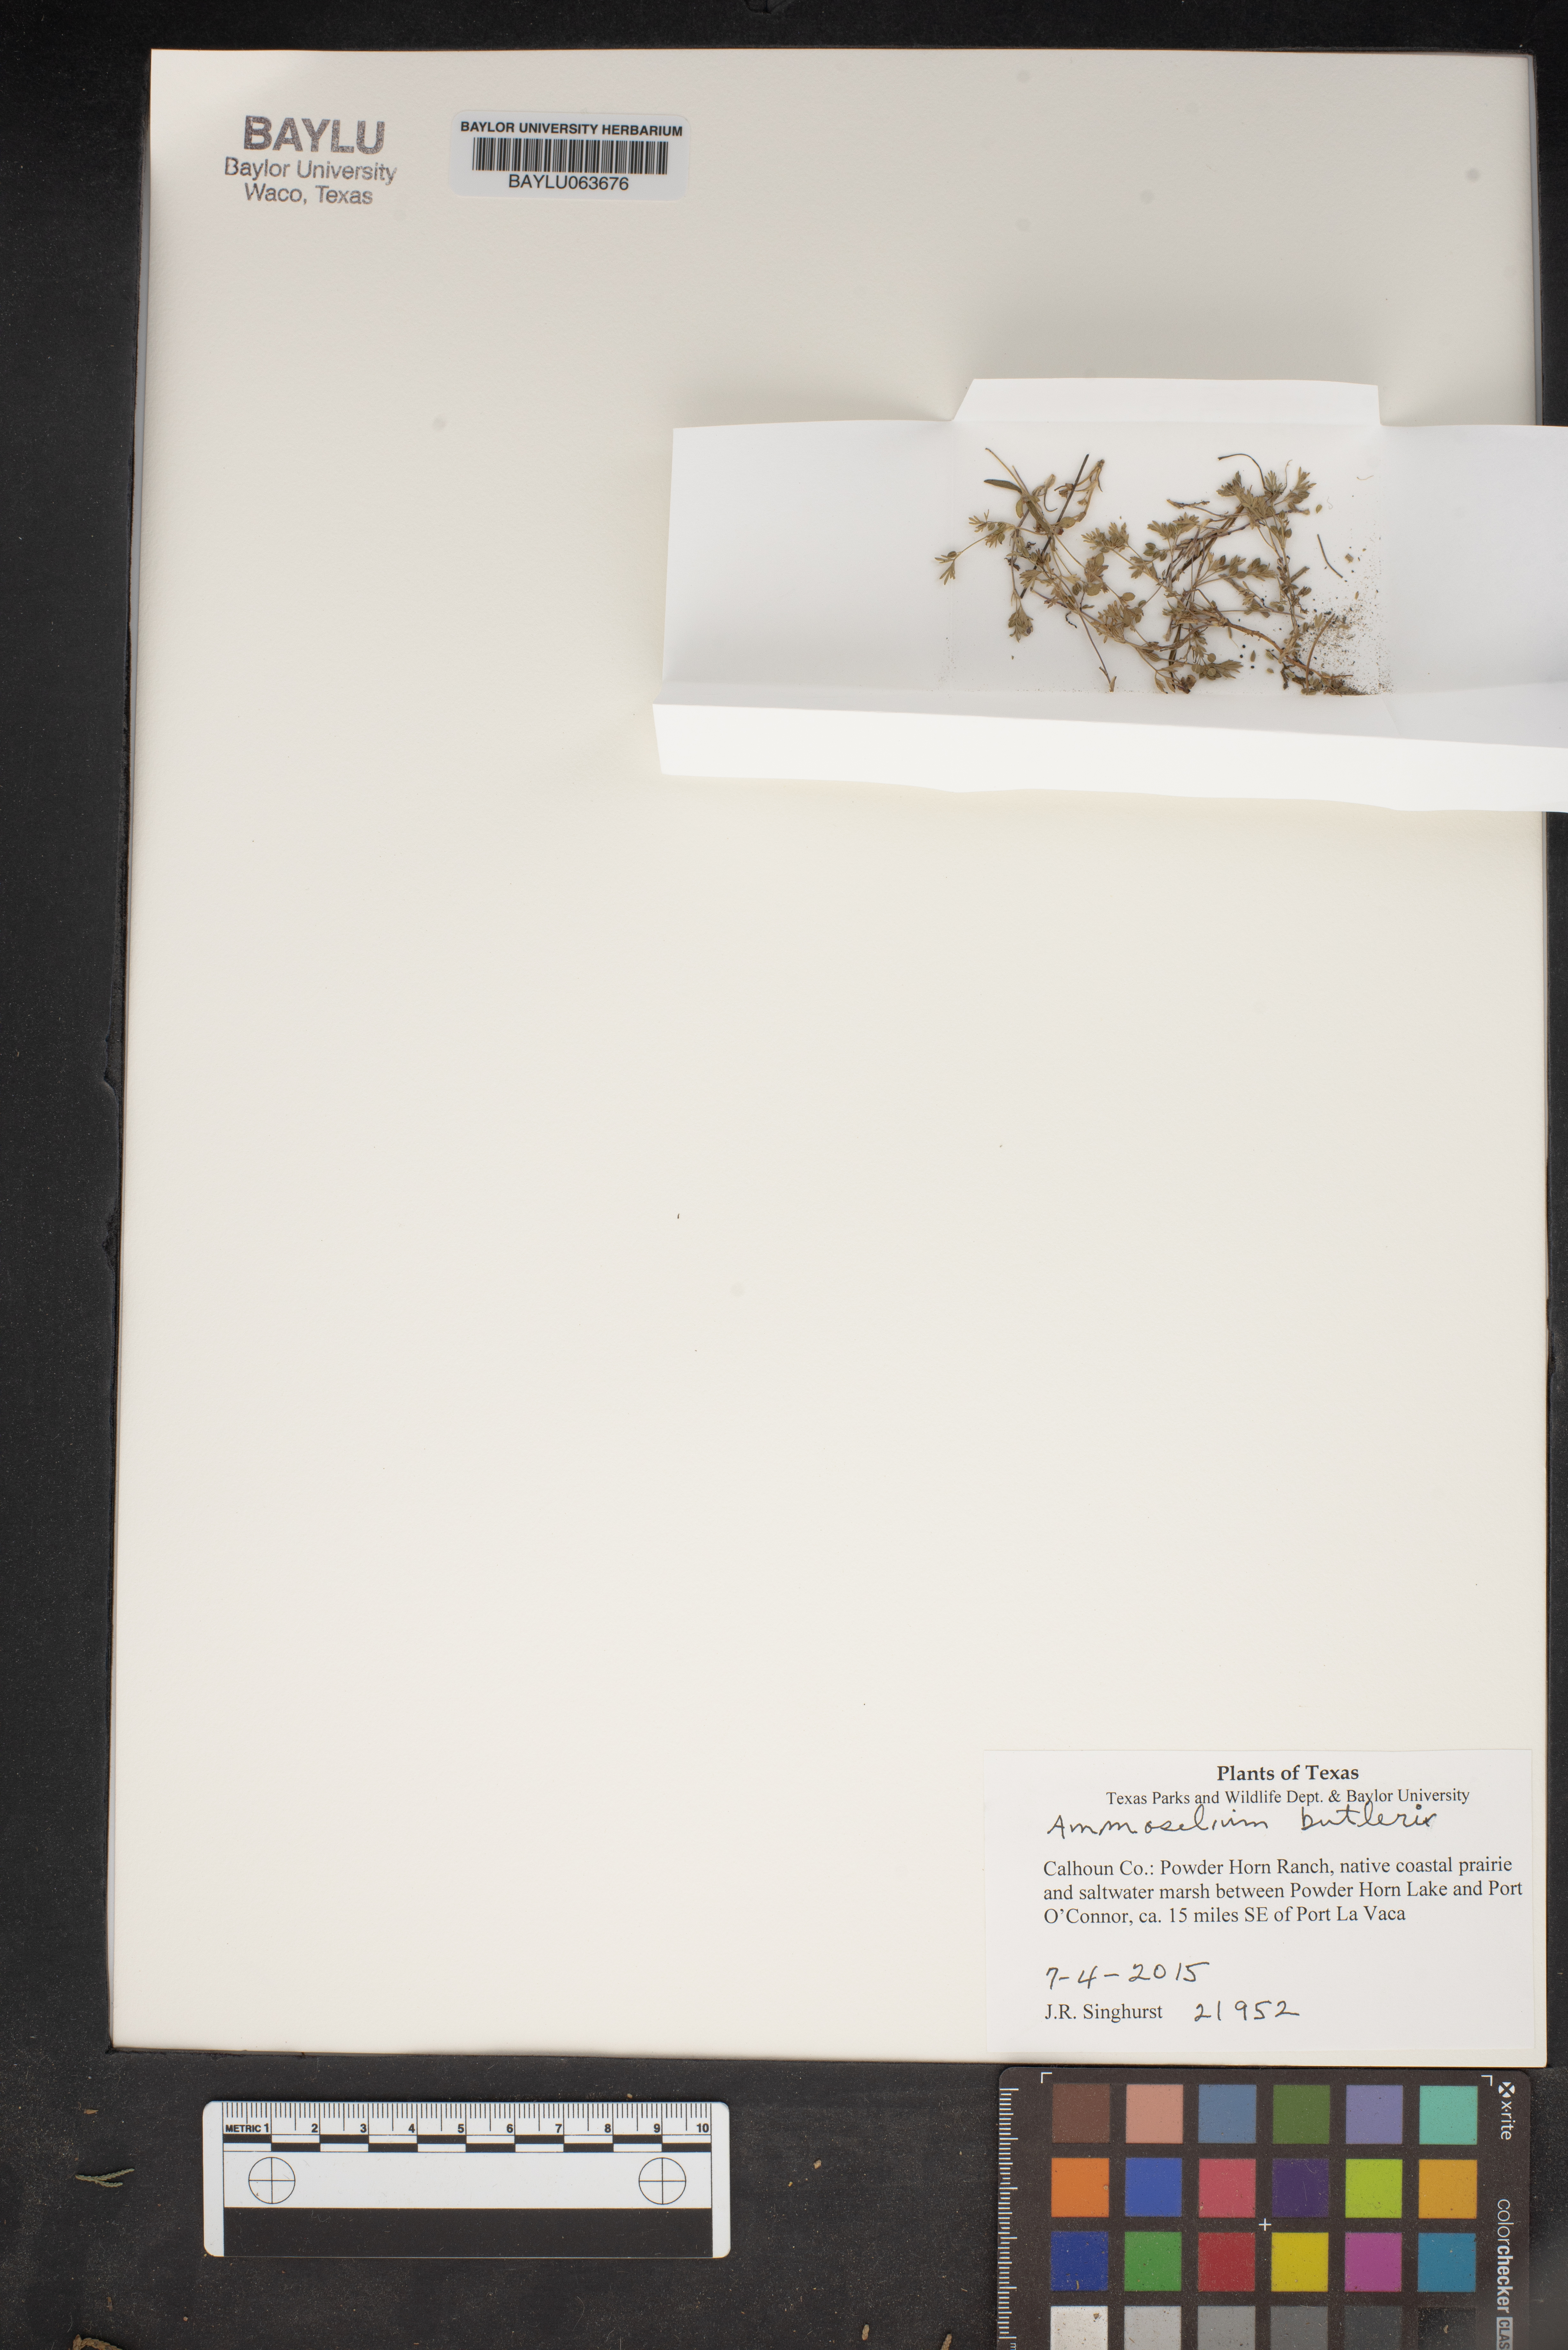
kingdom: Plantae
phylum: Tracheophyta
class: Magnoliopsida
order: Apiales
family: Apiaceae
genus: Ammoselinum
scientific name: Ammoselinum butleri
